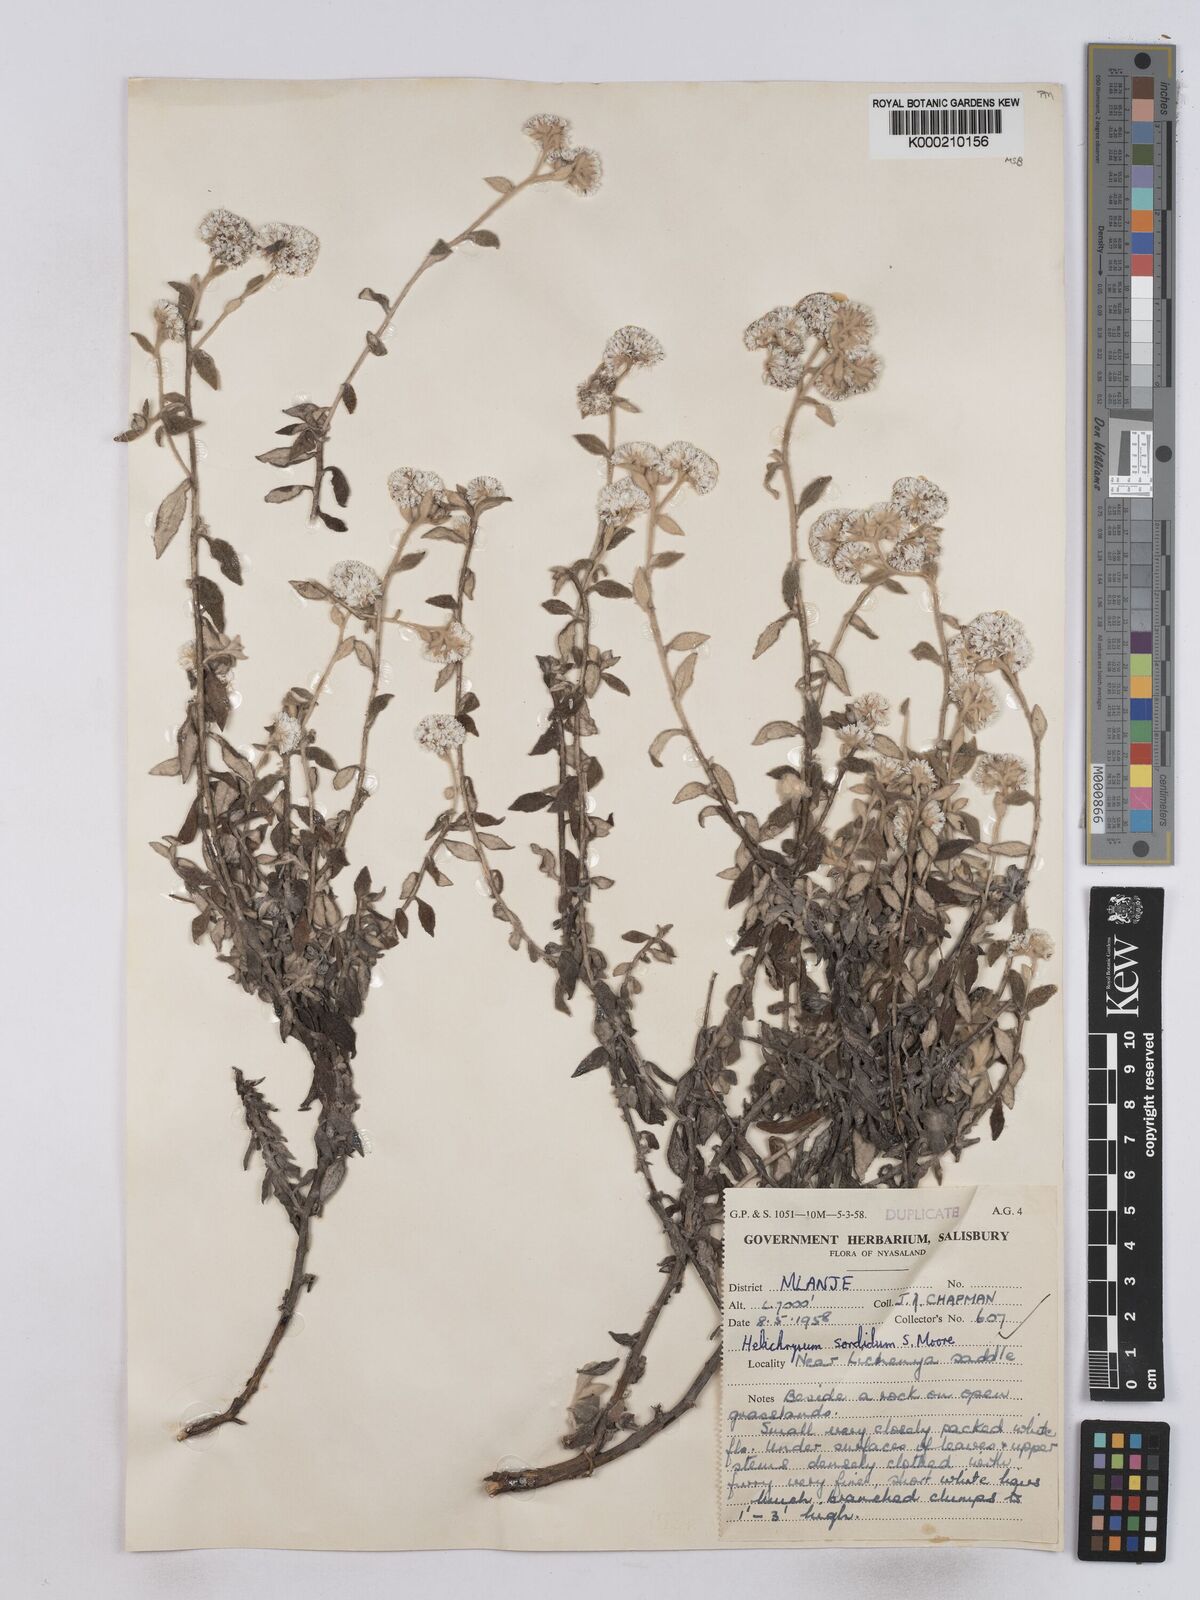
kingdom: Plantae
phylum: Tracheophyta
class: Magnoliopsida
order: Asterales
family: Asteraceae
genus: Helichrysum
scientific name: Helichrysum
